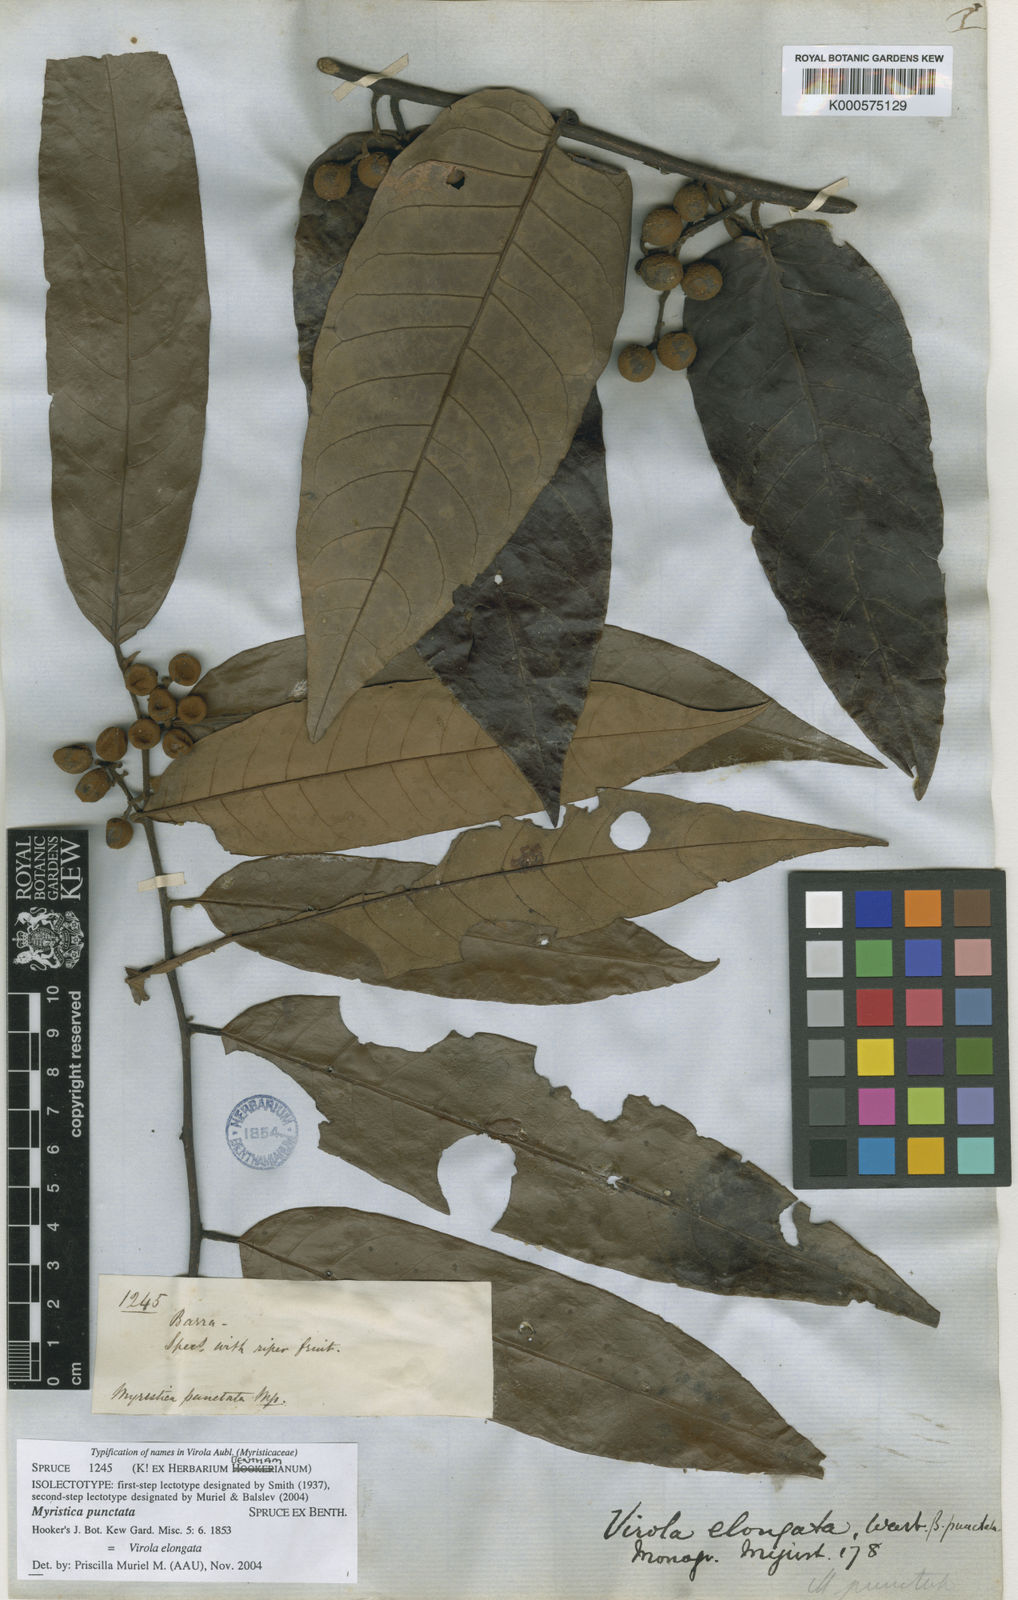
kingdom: Plantae
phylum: Tracheophyta
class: Magnoliopsida
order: Magnoliales
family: Myristicaceae
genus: Virola
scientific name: Virola elongata
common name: Sacred virola
